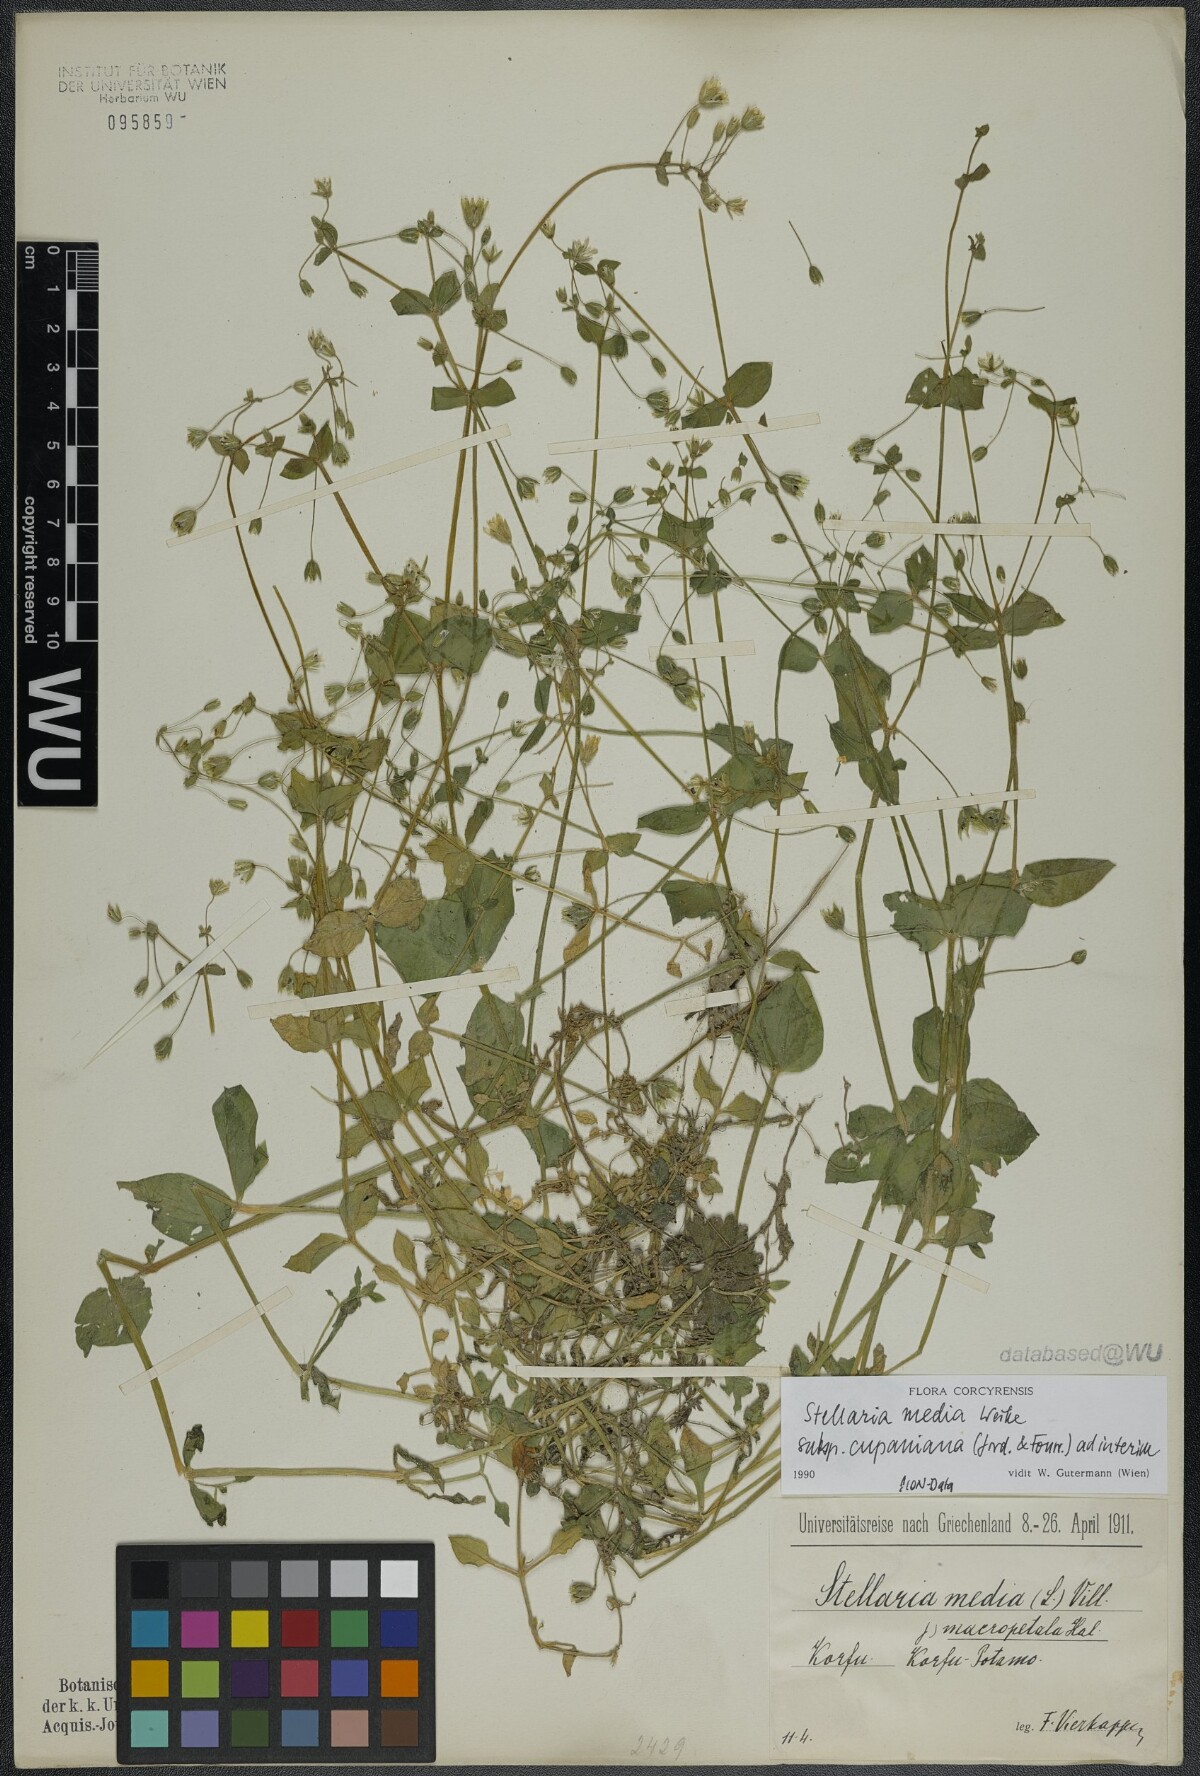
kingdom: Plantae
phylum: Tracheophyta
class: Magnoliopsida
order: Caryophyllales
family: Caryophyllaceae
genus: Stellaria
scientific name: Stellaria cupaniana
